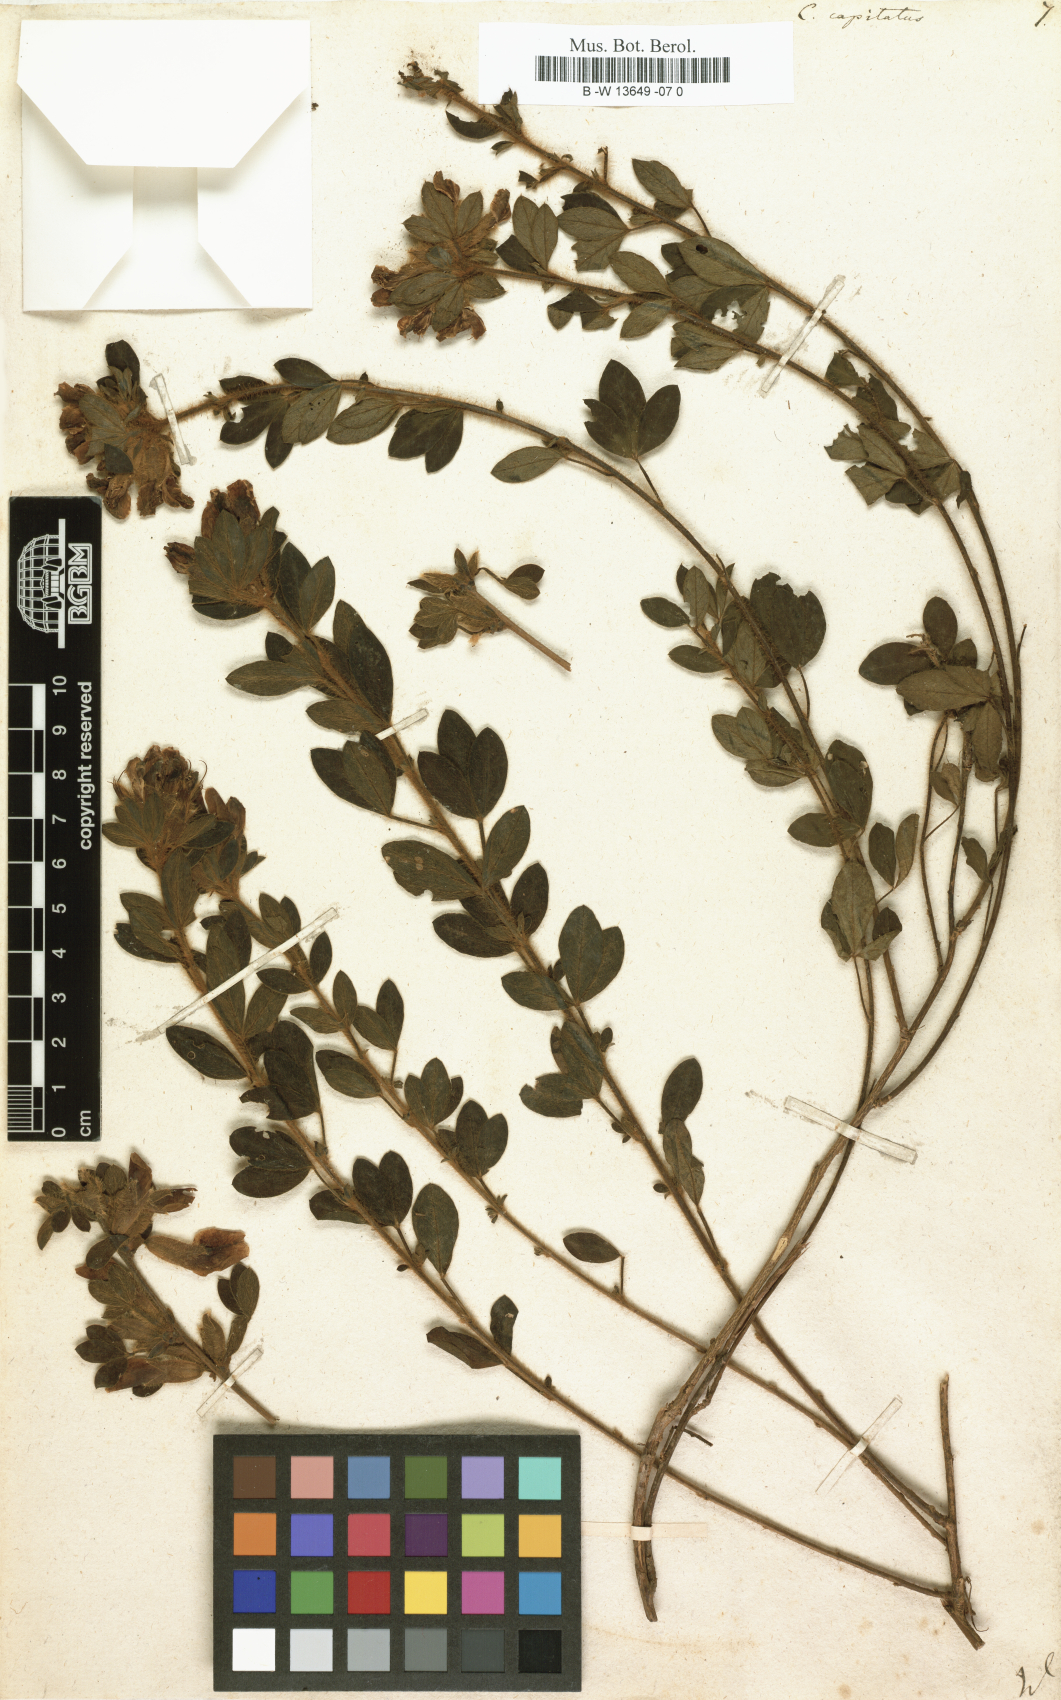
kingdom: Plantae
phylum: Tracheophyta
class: Magnoliopsida
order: Fabales
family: Fabaceae
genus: Chamaecytisus
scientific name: Chamaecytisus hirsutus
